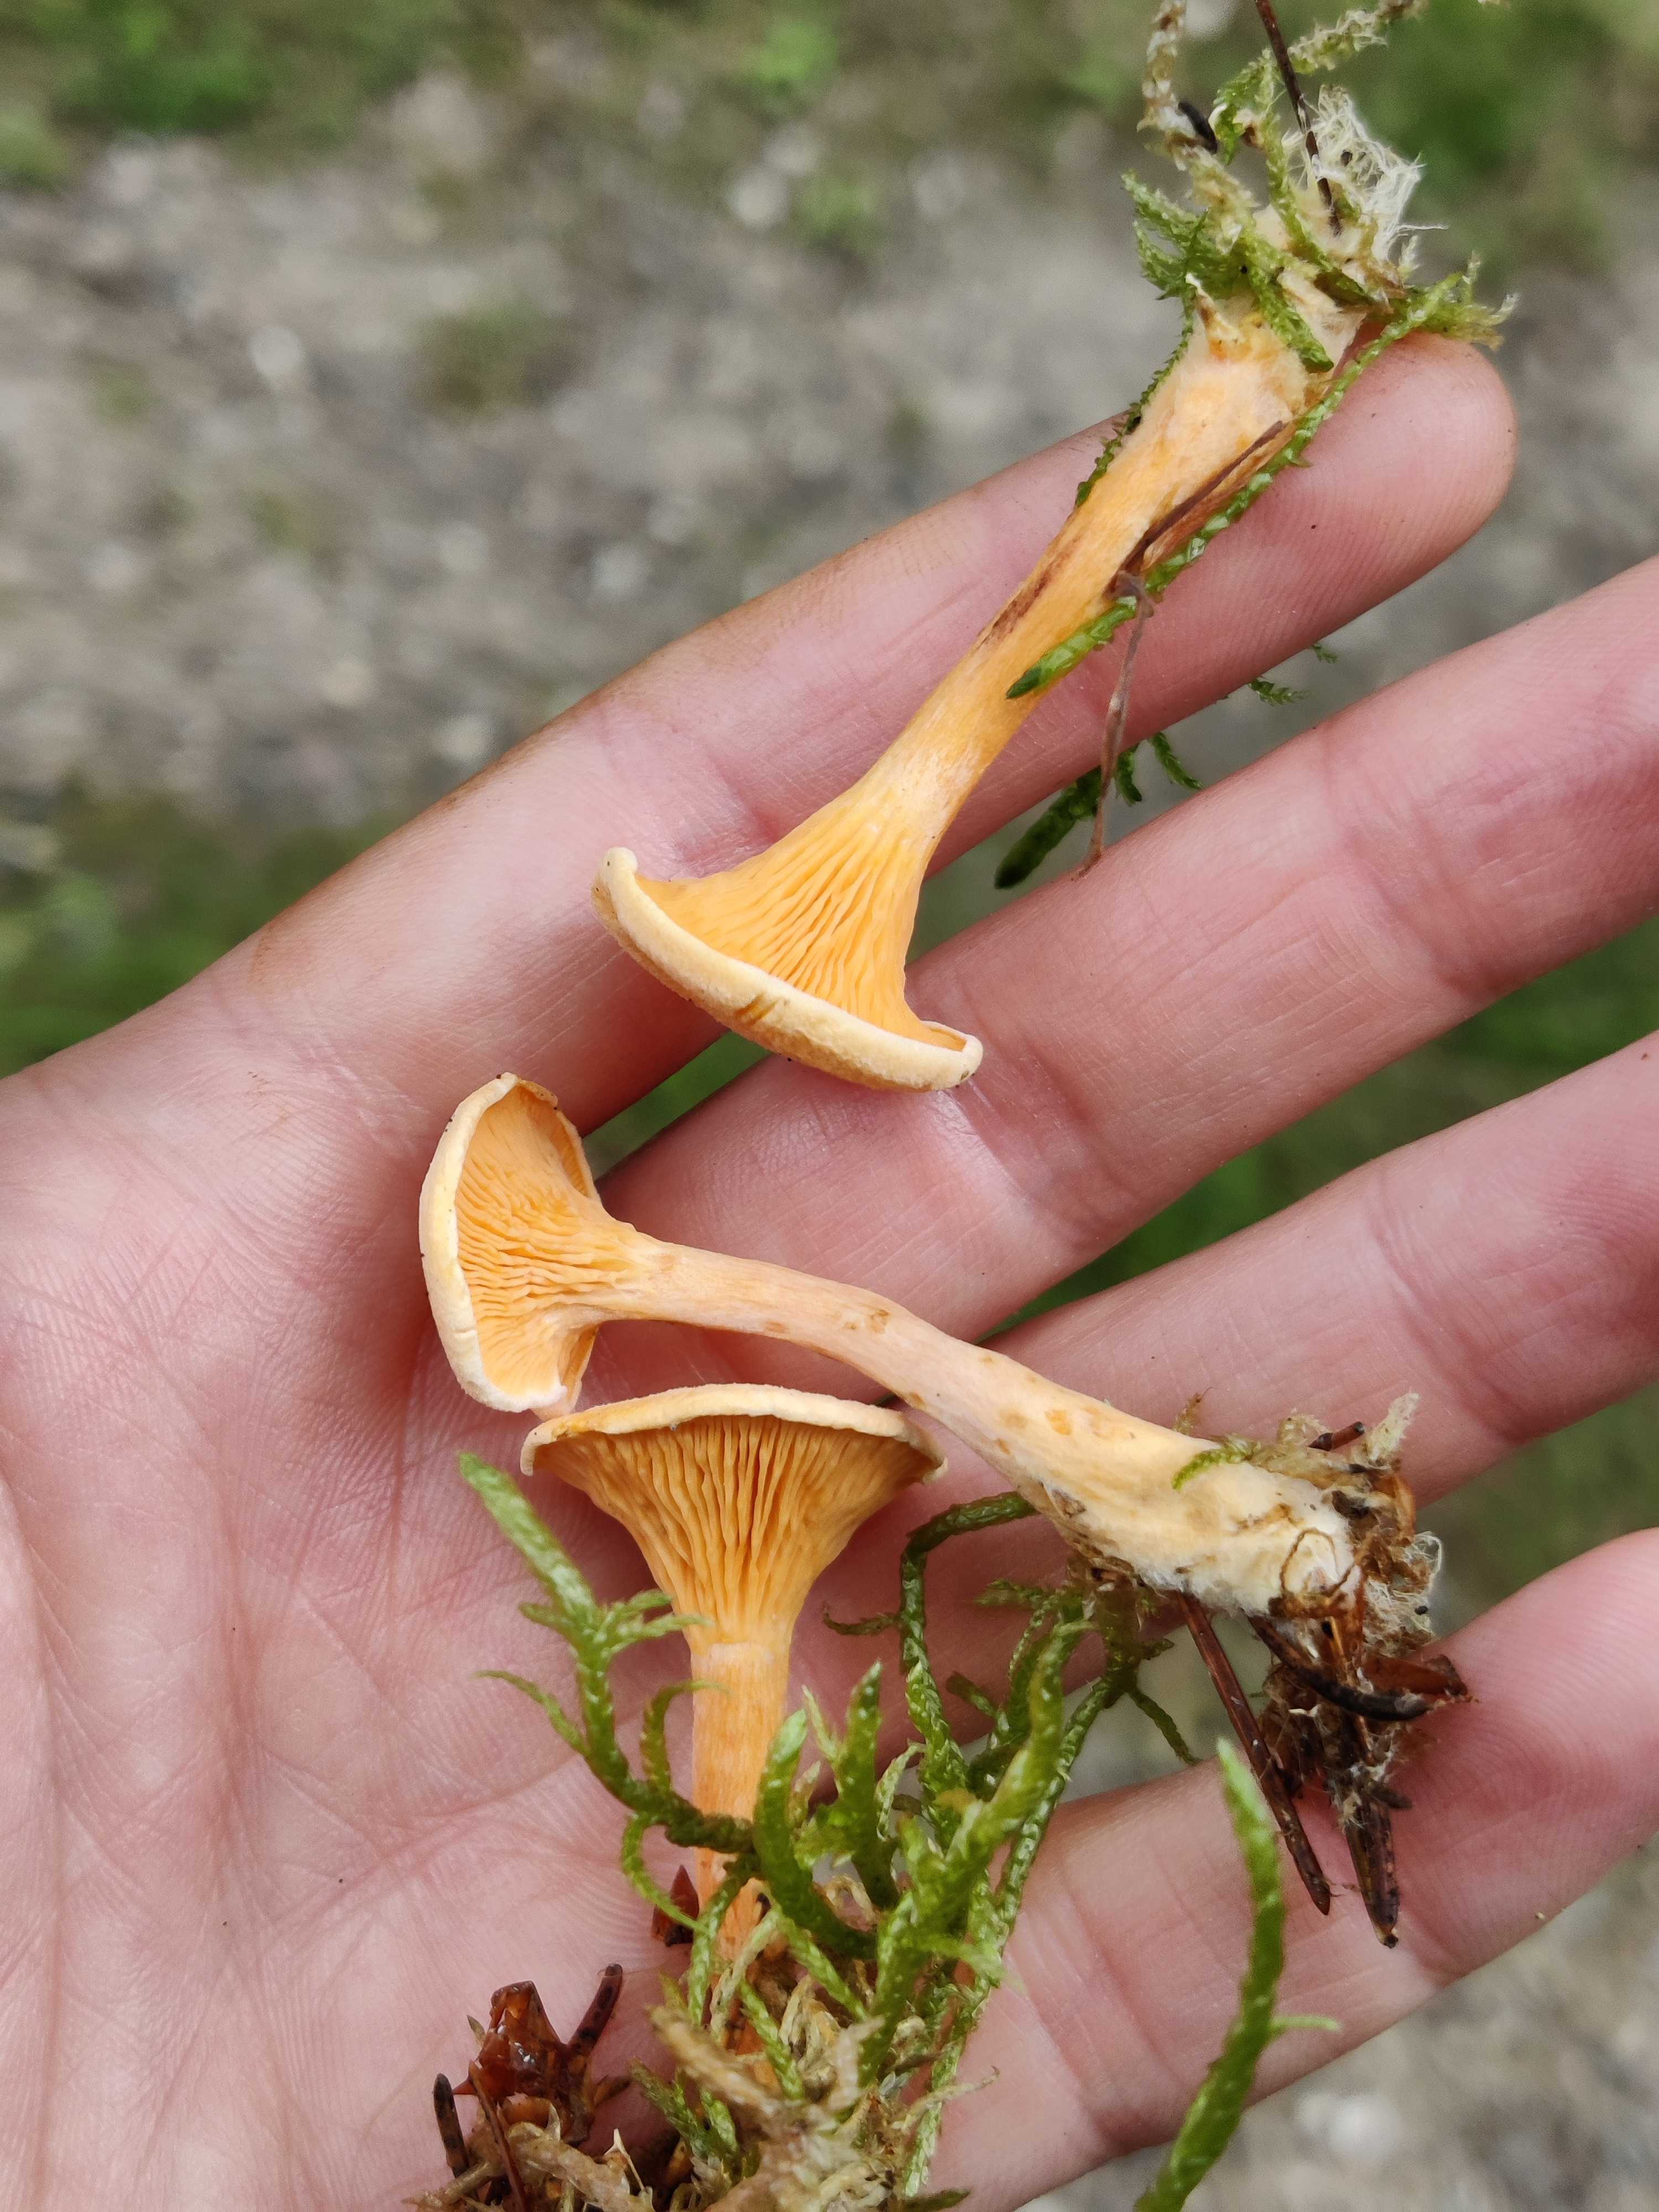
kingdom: Fungi
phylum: Basidiomycota
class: Agaricomycetes
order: Boletales
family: Hygrophoropsidaceae
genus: Hygrophoropsis
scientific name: Hygrophoropsis aurantiaca
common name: almindelig orangekantarel
